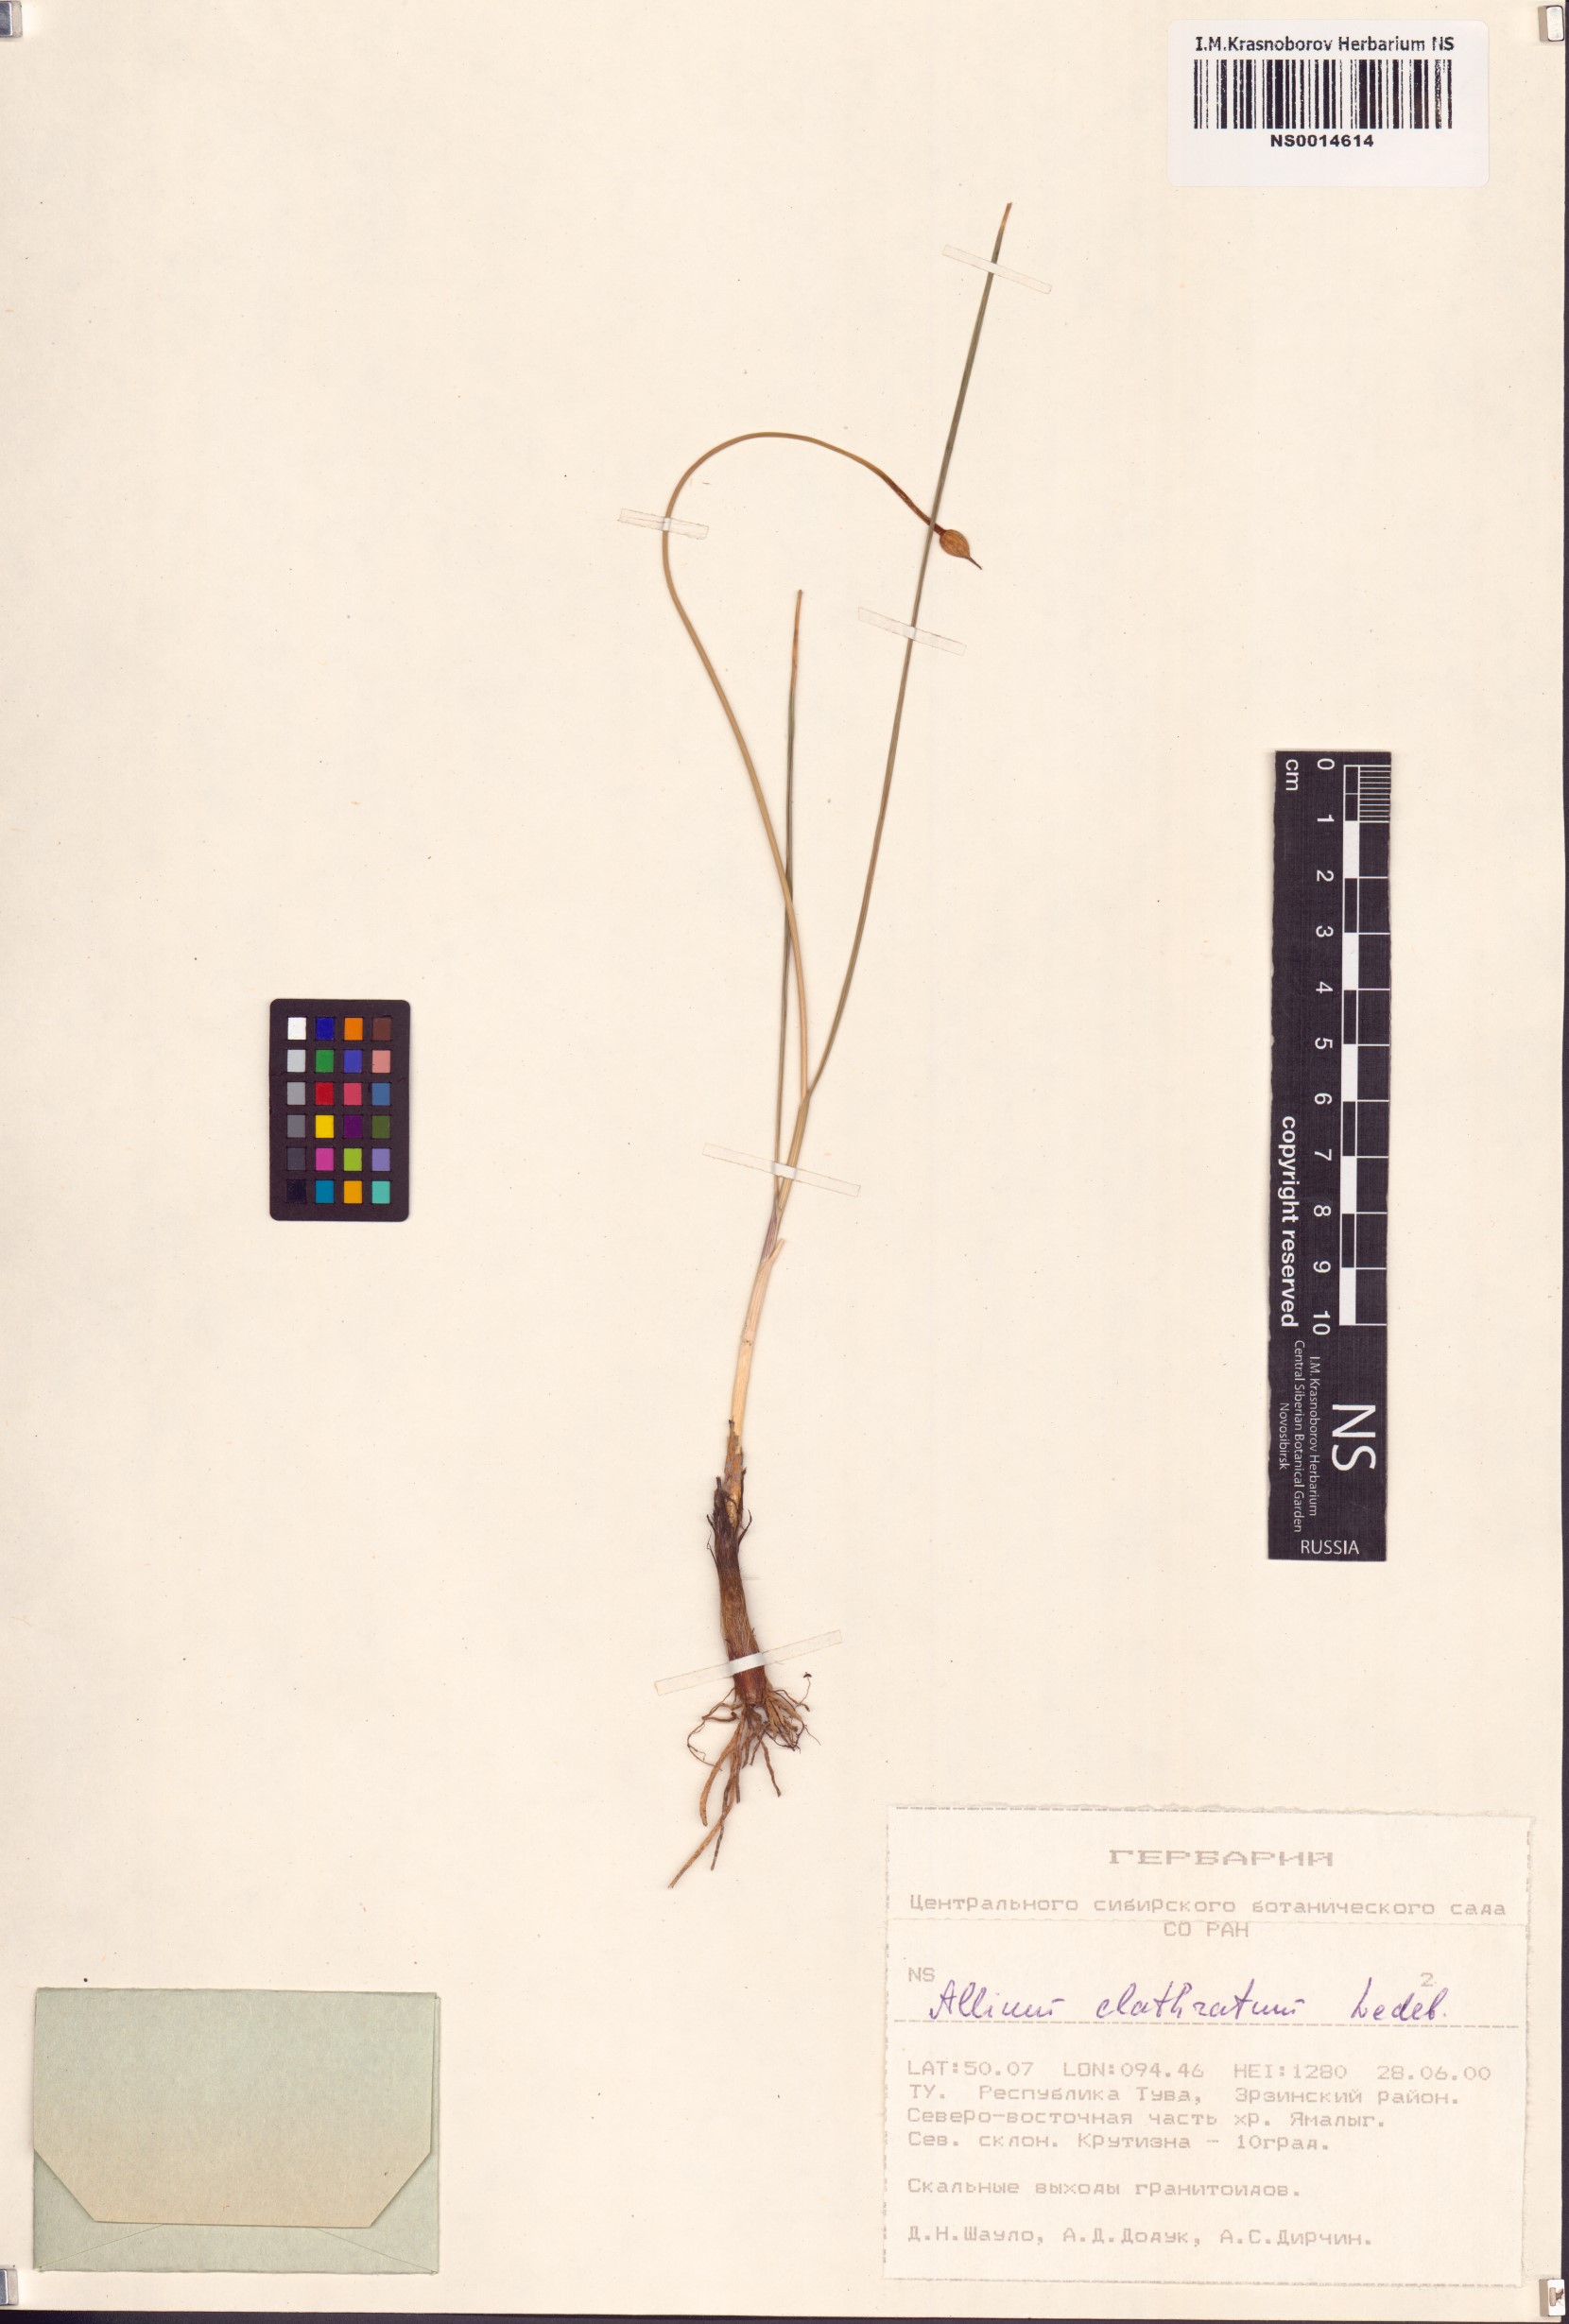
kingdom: Plantae
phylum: Tracheophyta
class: Liliopsida
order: Asparagales
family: Amaryllidaceae
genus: Allium
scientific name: Allium clathratum
